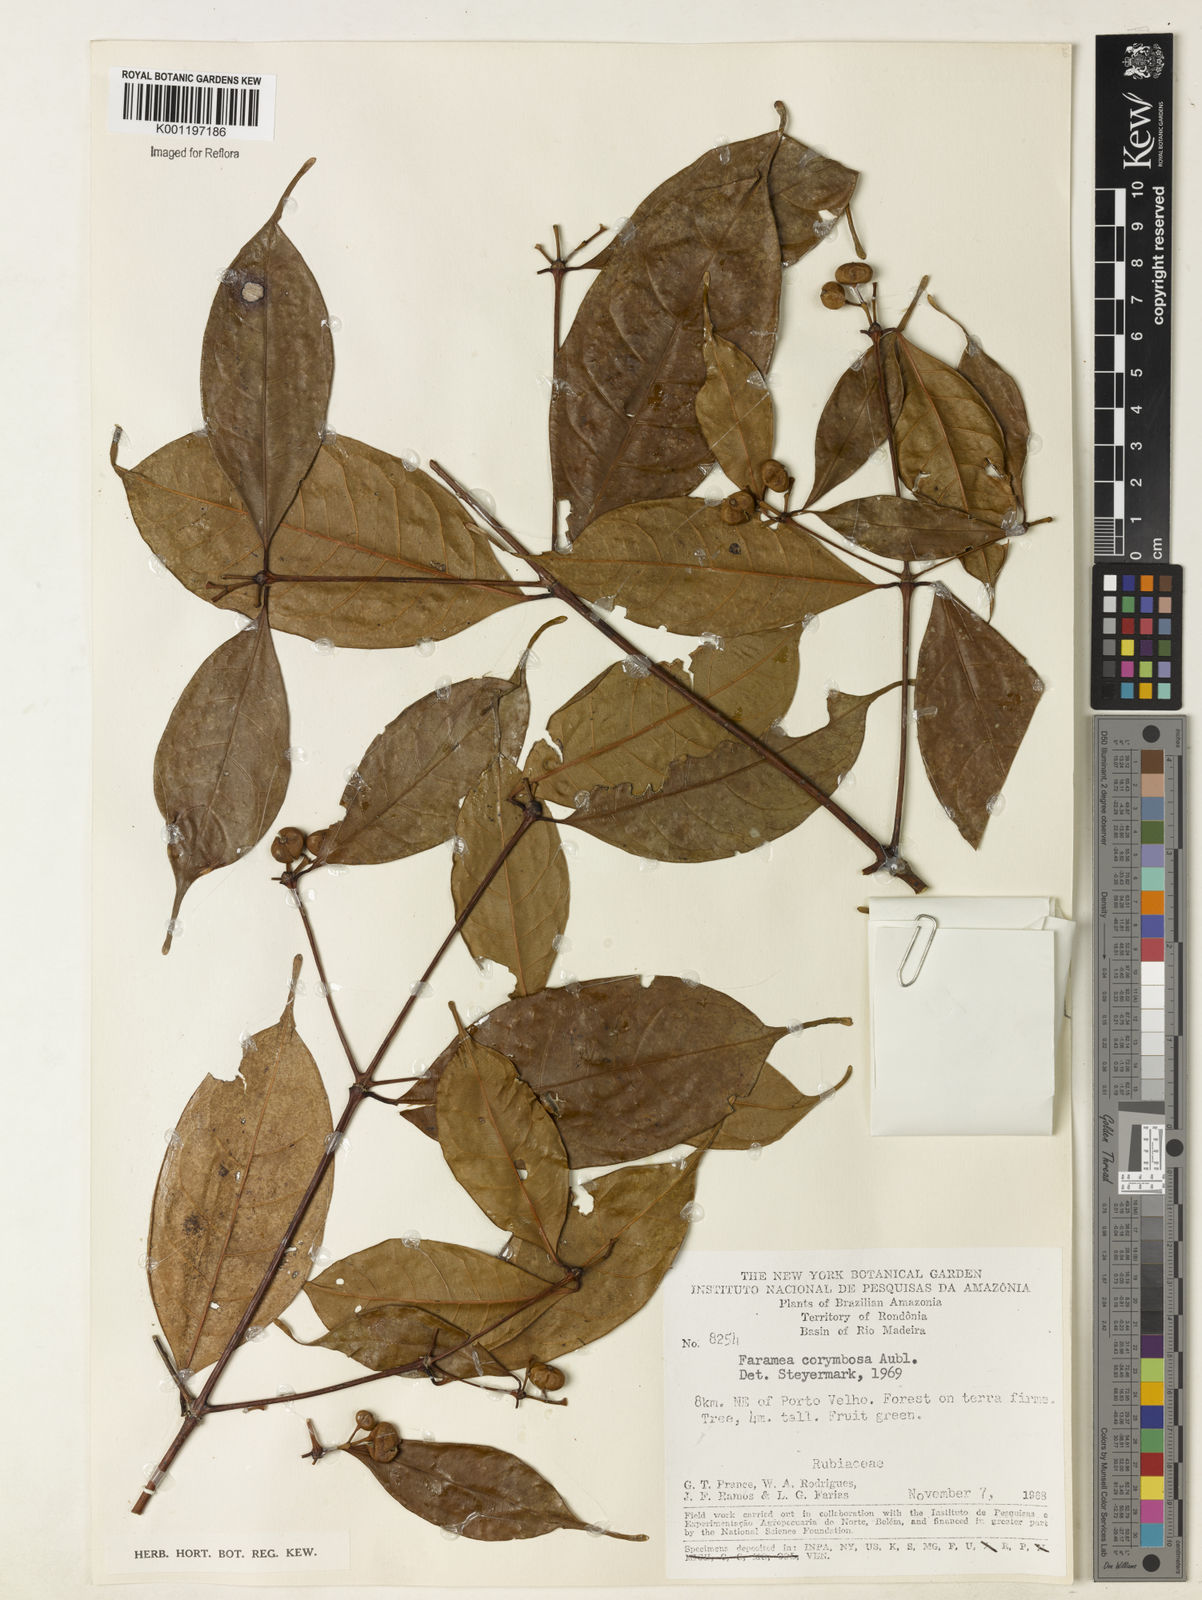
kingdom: Plantae
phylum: Tracheophyta
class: Magnoliopsida
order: Gentianales
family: Rubiaceae
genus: Faramea
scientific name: Faramea corymbosa
